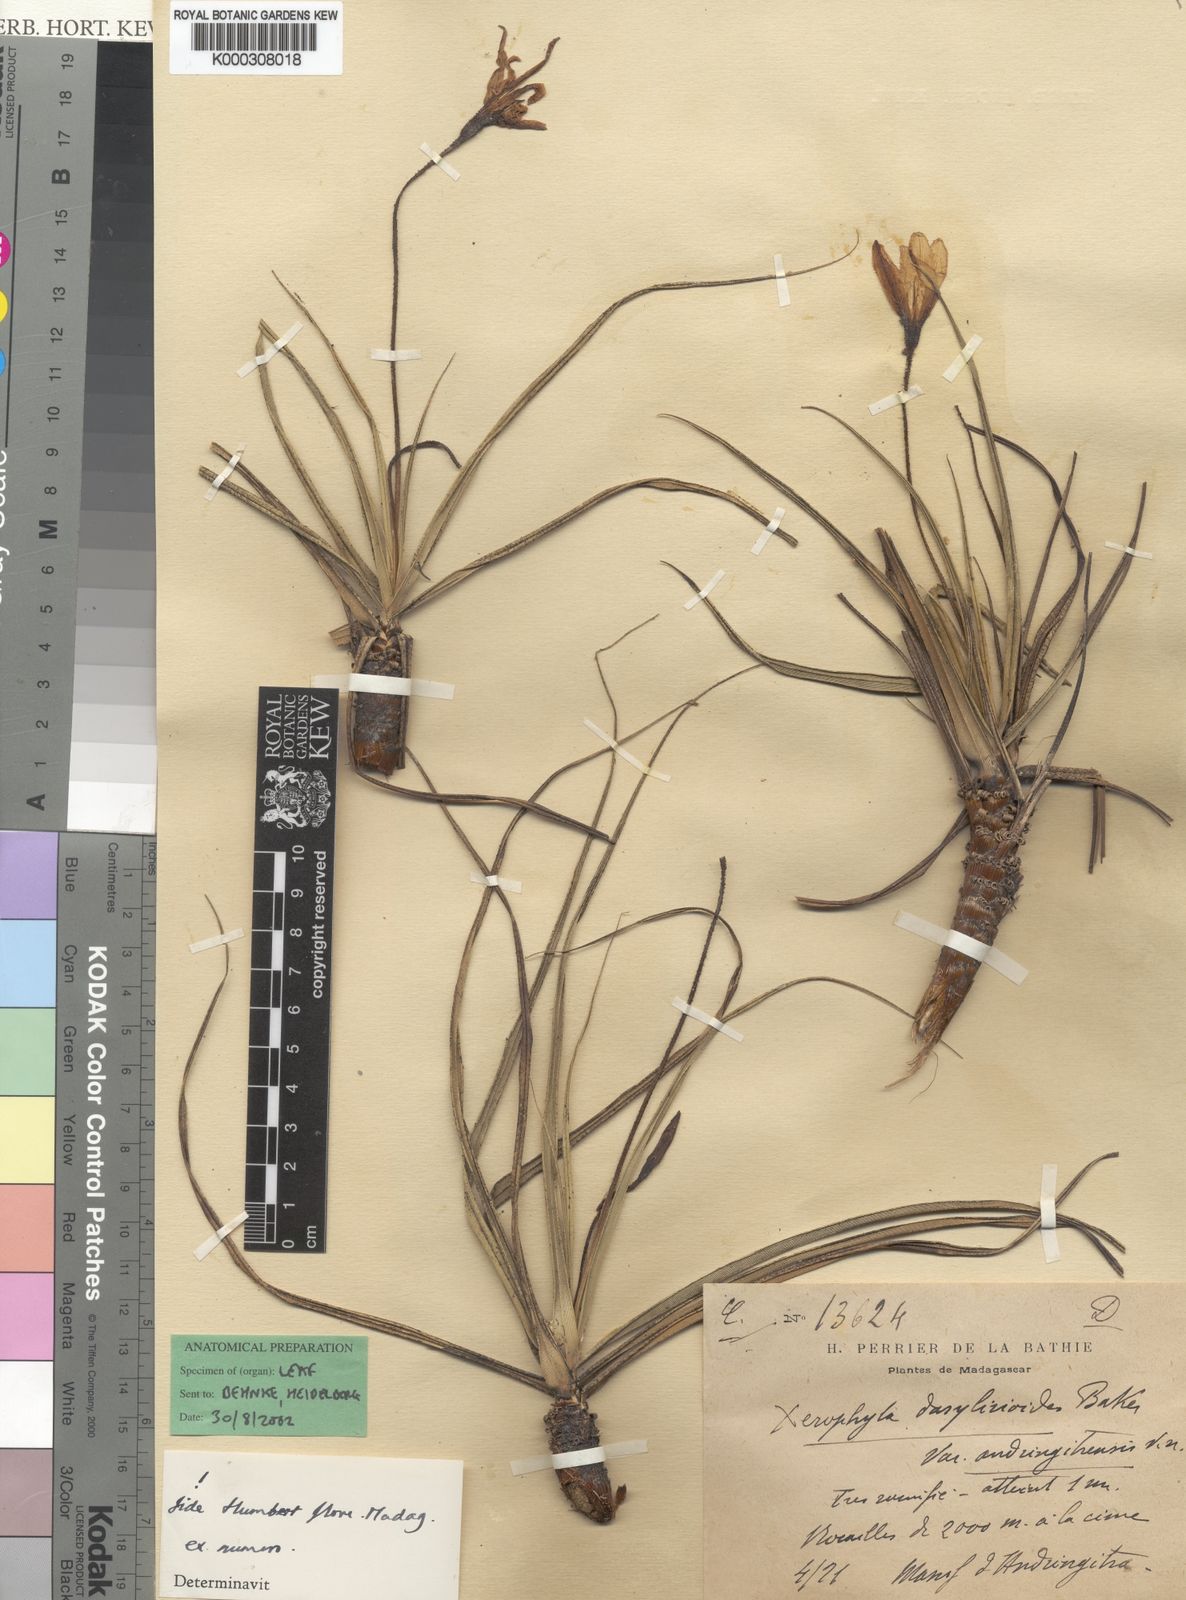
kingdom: Plantae
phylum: Tracheophyta
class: Liliopsida
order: Pandanales
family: Velloziaceae
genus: Xerophyta
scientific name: Xerophyta andringitrensis
